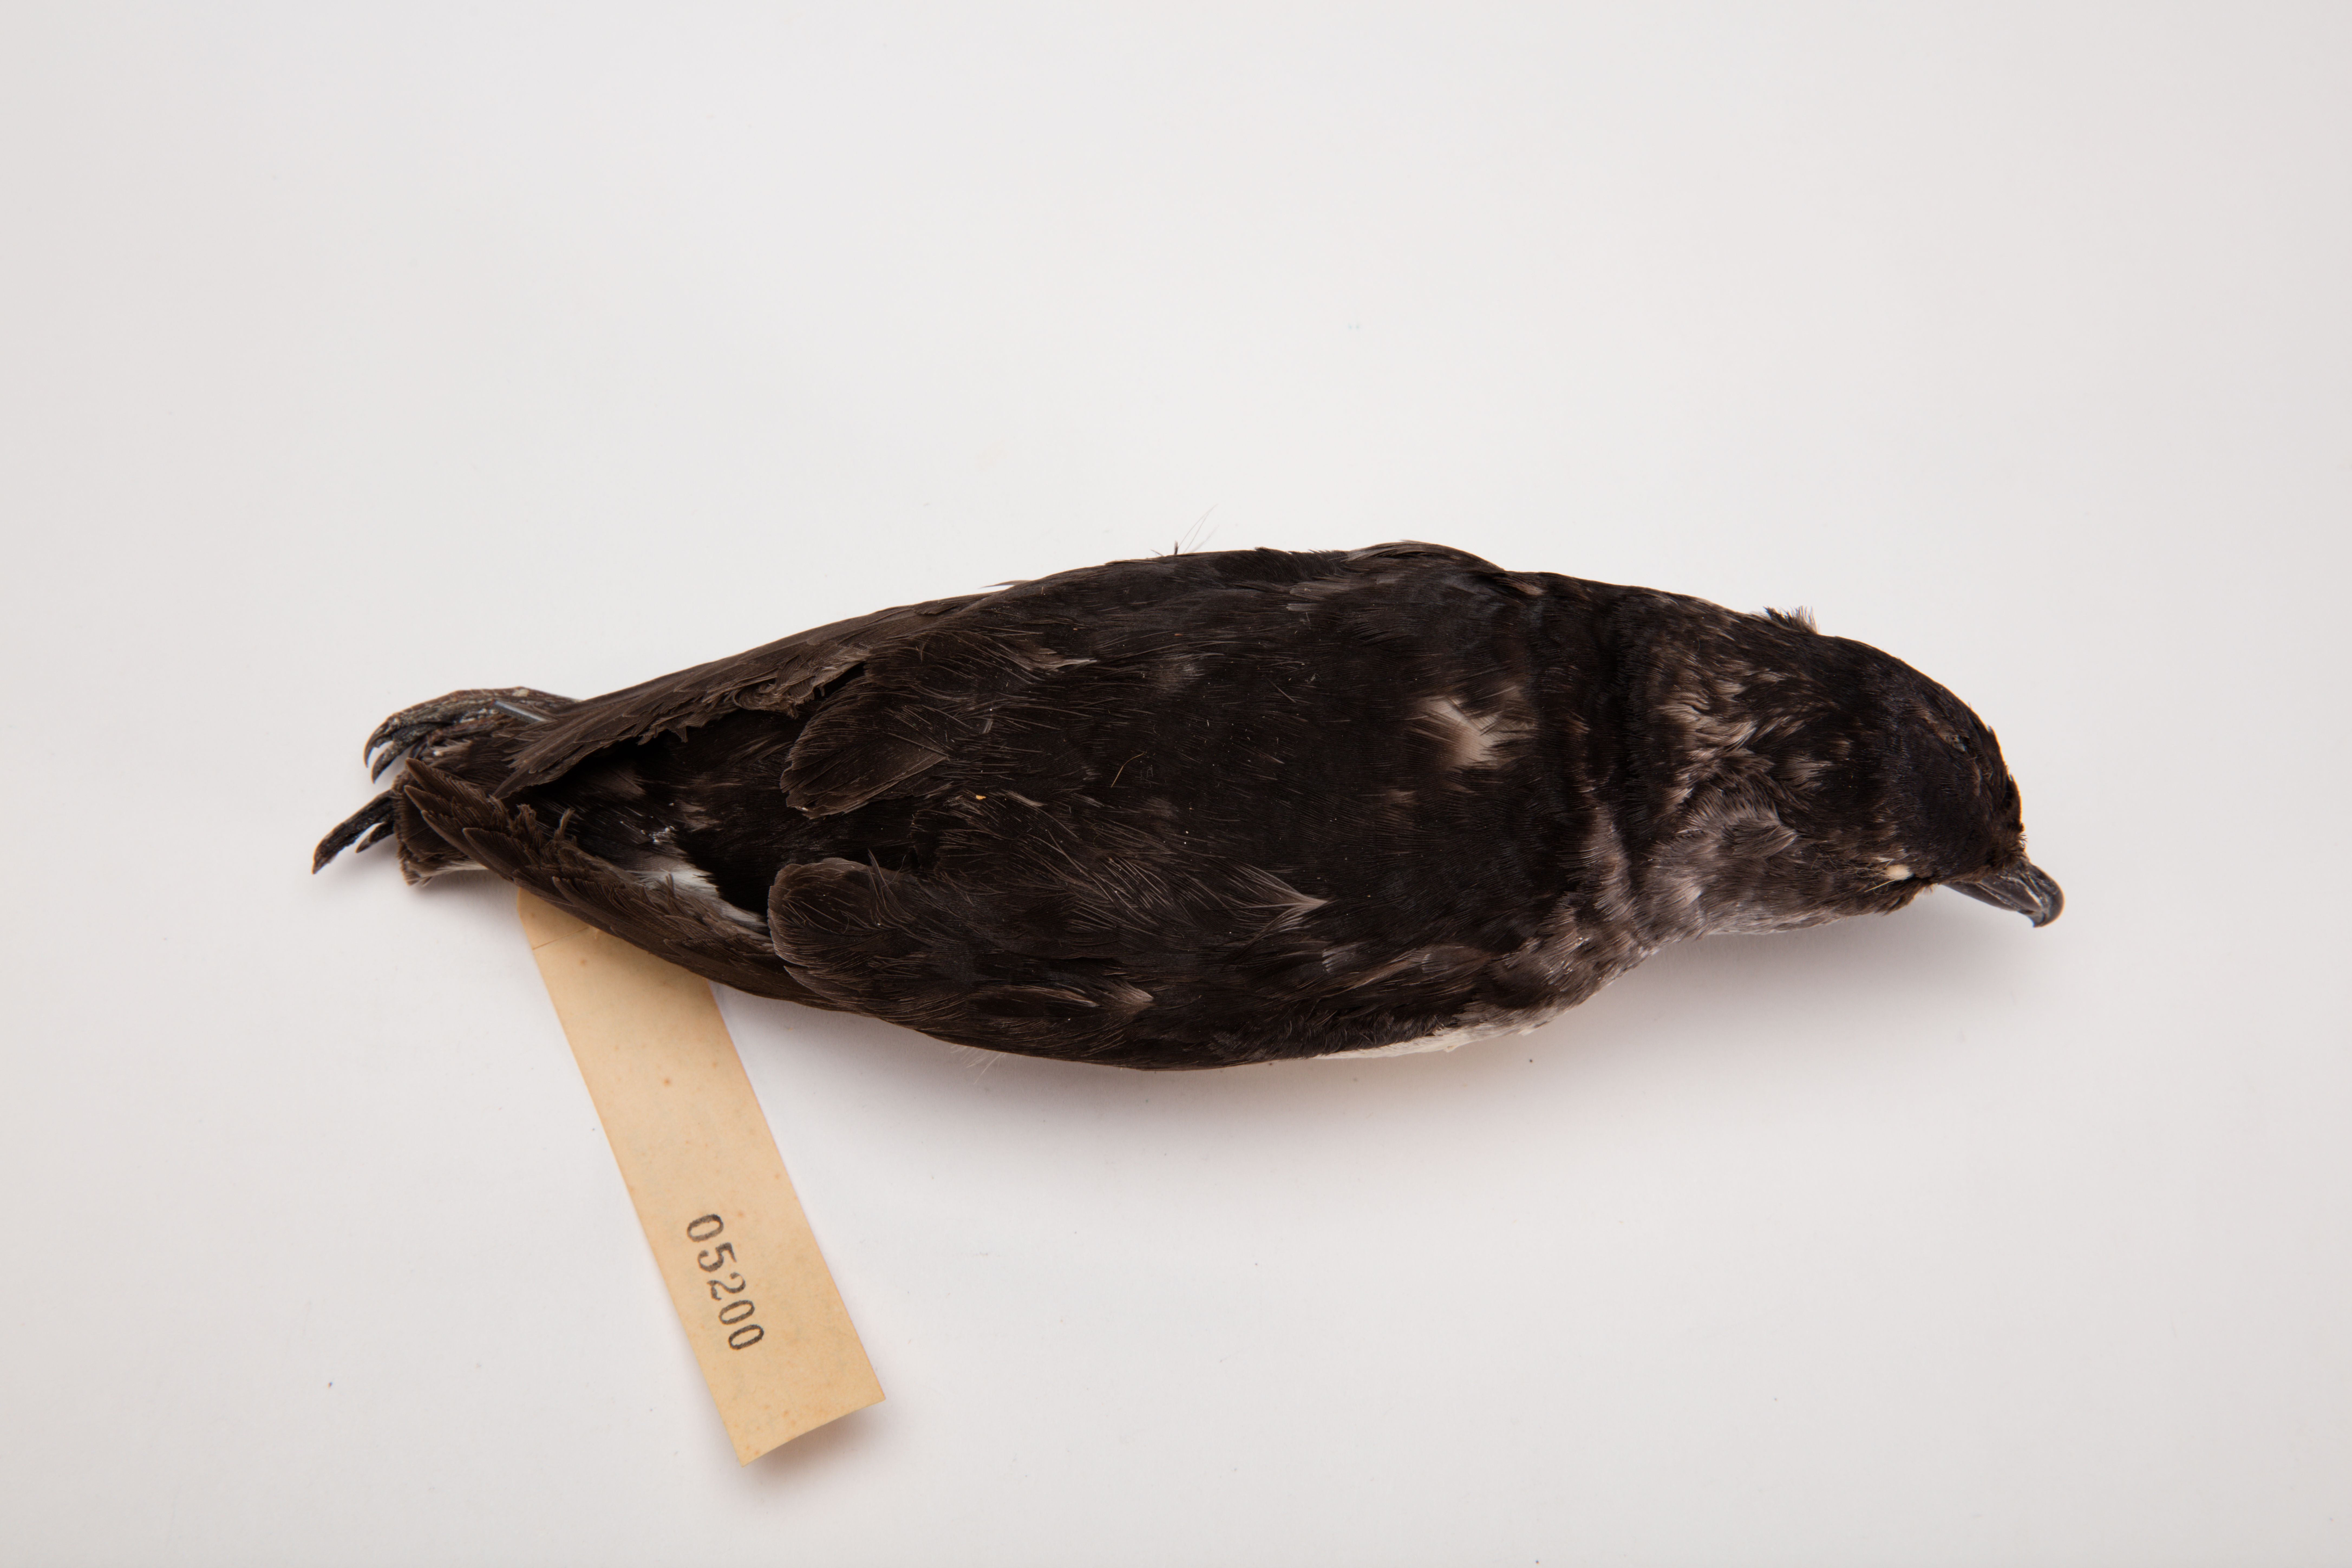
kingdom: Animalia
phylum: Chordata
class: Aves
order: Procellariiformes
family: Pelecanoididae
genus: Pelecanoides
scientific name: Pelecanoides urinatrix
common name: Common diving-petrel
